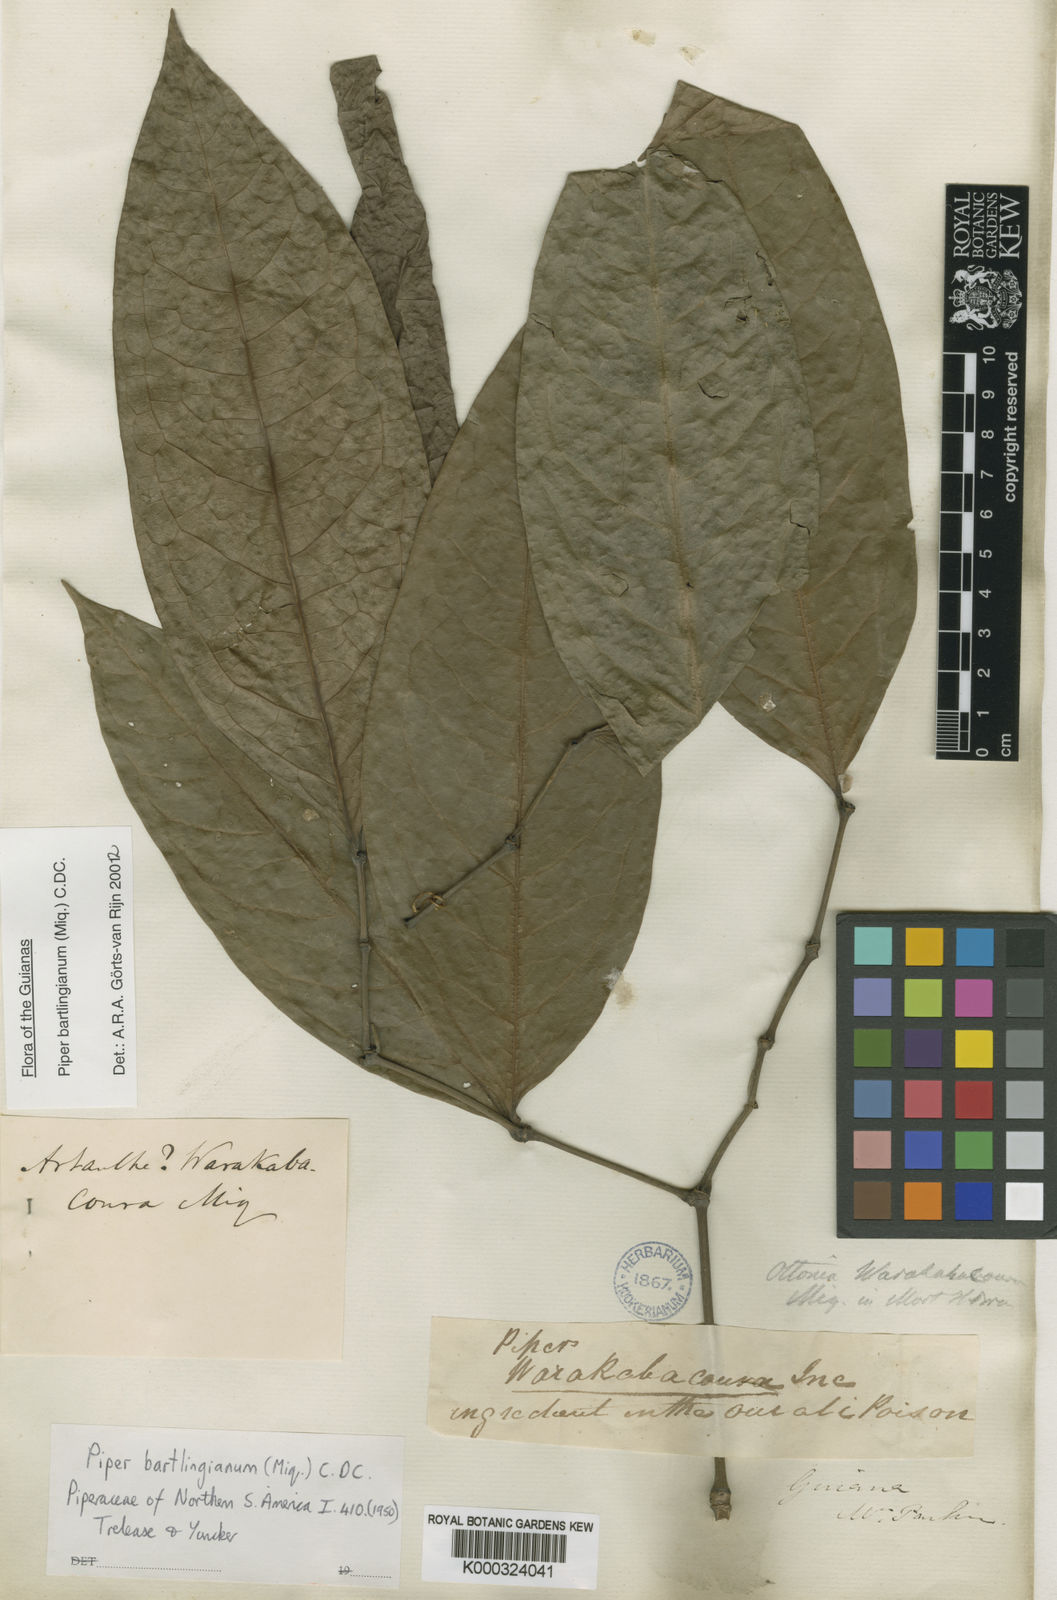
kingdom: Plantae
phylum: Tracheophyta
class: Magnoliopsida
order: Piperales
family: Piperaceae
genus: Piper
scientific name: Piper bartlingianum
